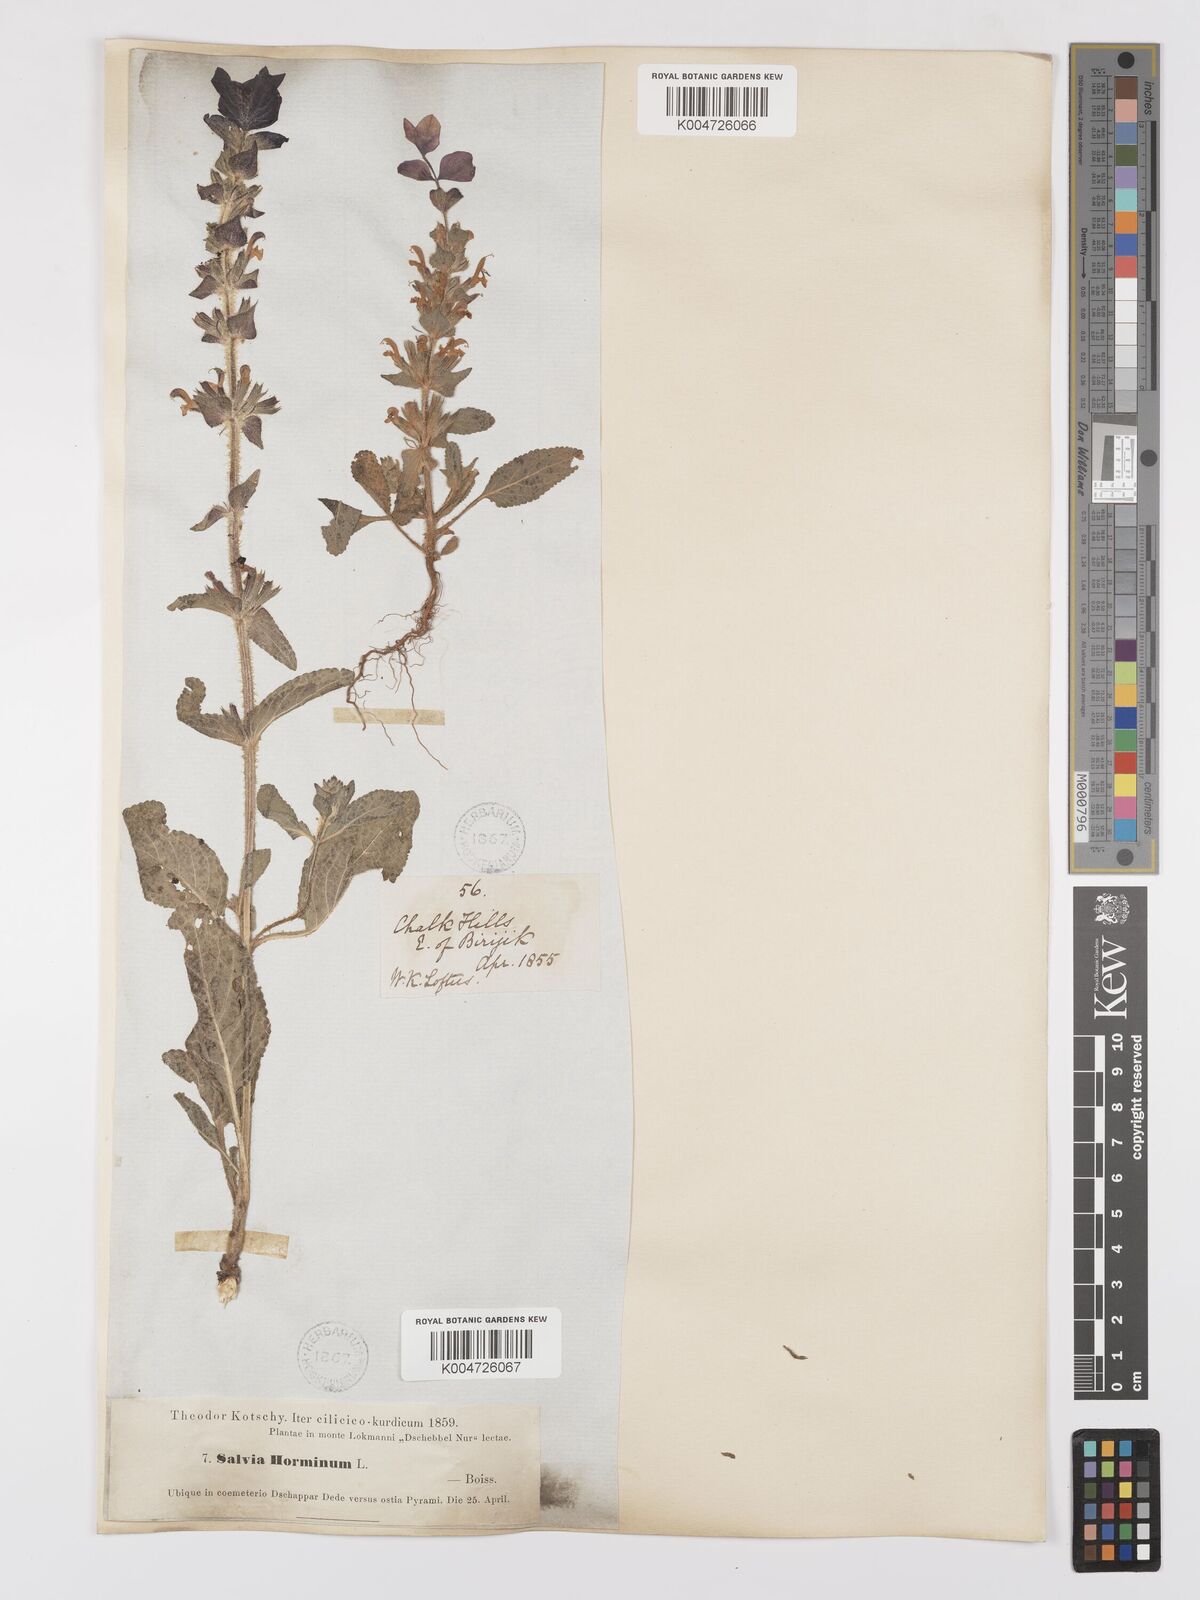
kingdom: Plantae
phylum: Tracheophyta
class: Magnoliopsida
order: Lamiales
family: Lamiaceae
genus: Salvia
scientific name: Salvia viridis
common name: Annual clary
